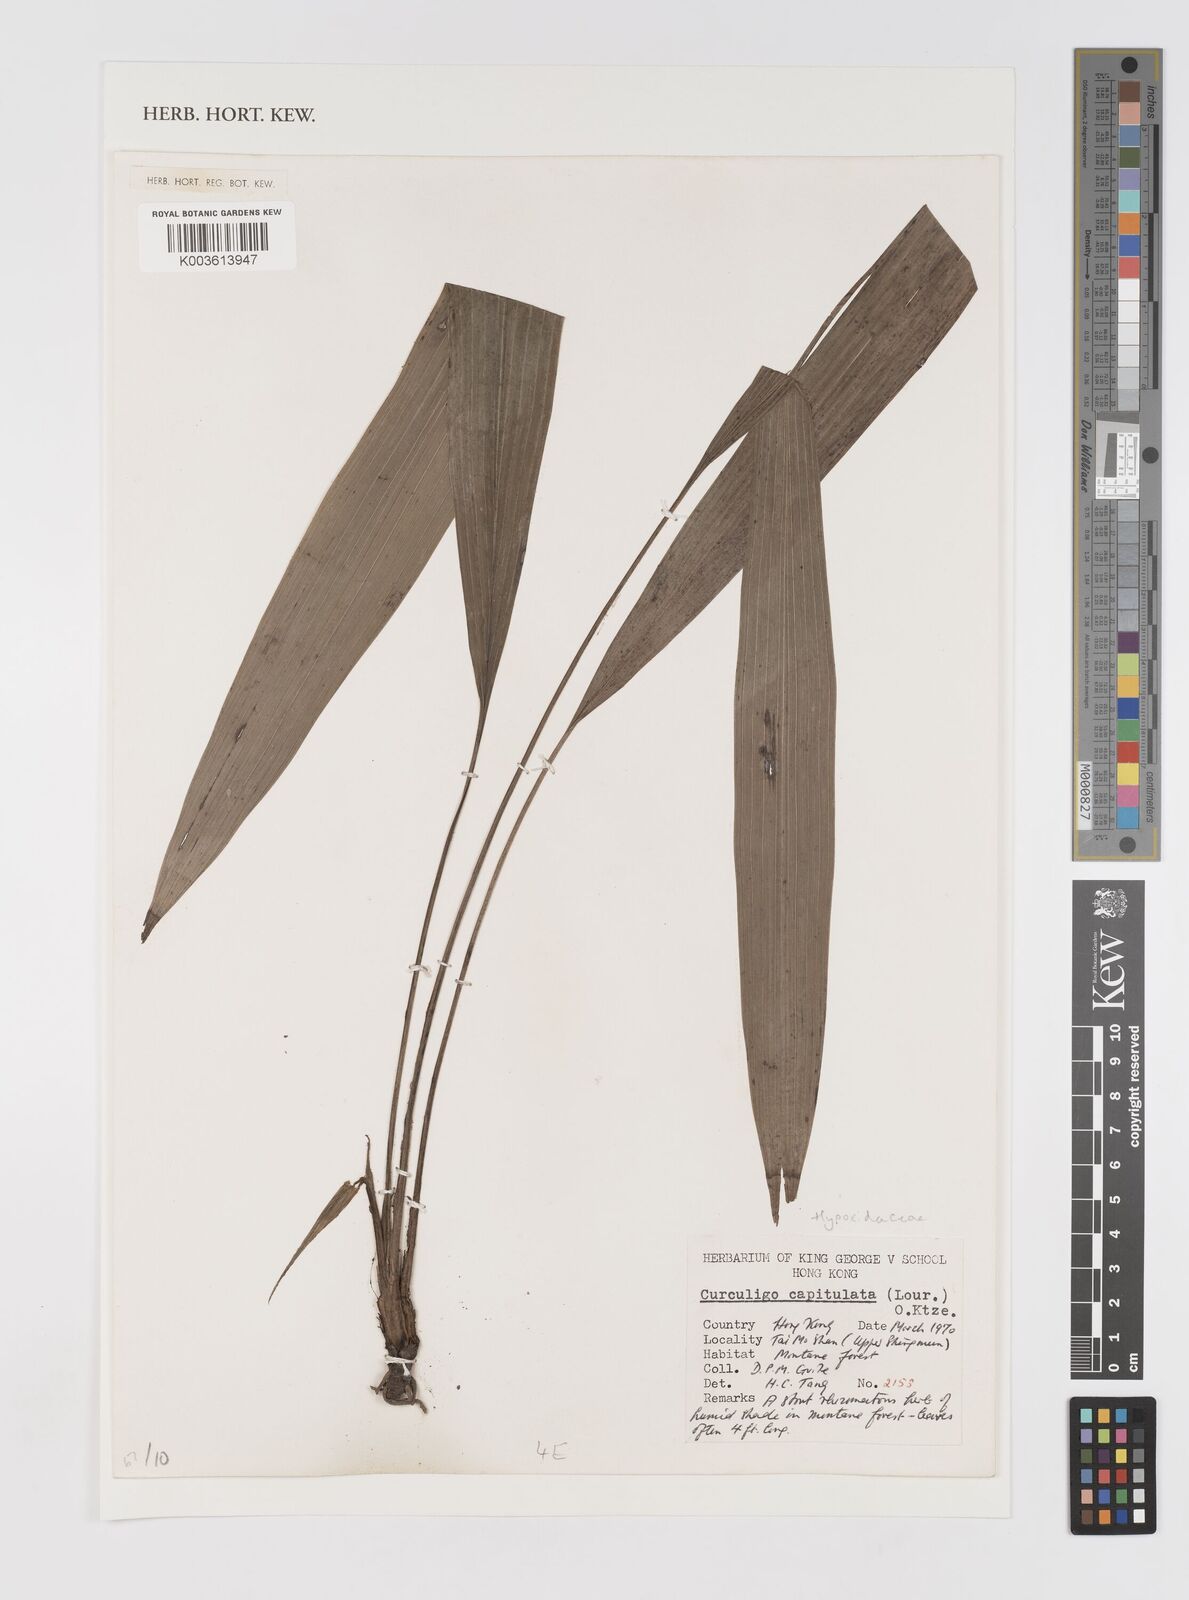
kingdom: Plantae
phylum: Tracheophyta
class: Liliopsida
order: Asparagales
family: Hypoxidaceae
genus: Curculigo
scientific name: Curculigo capitulata
